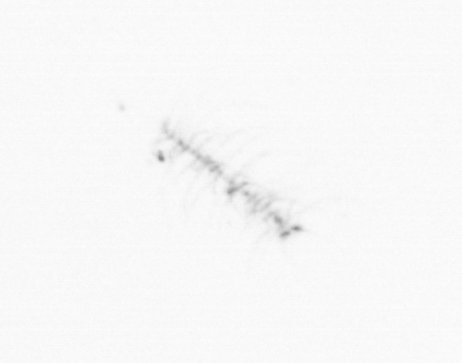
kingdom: Chromista
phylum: Ochrophyta
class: Bacillariophyceae
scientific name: Bacillariophyceae
